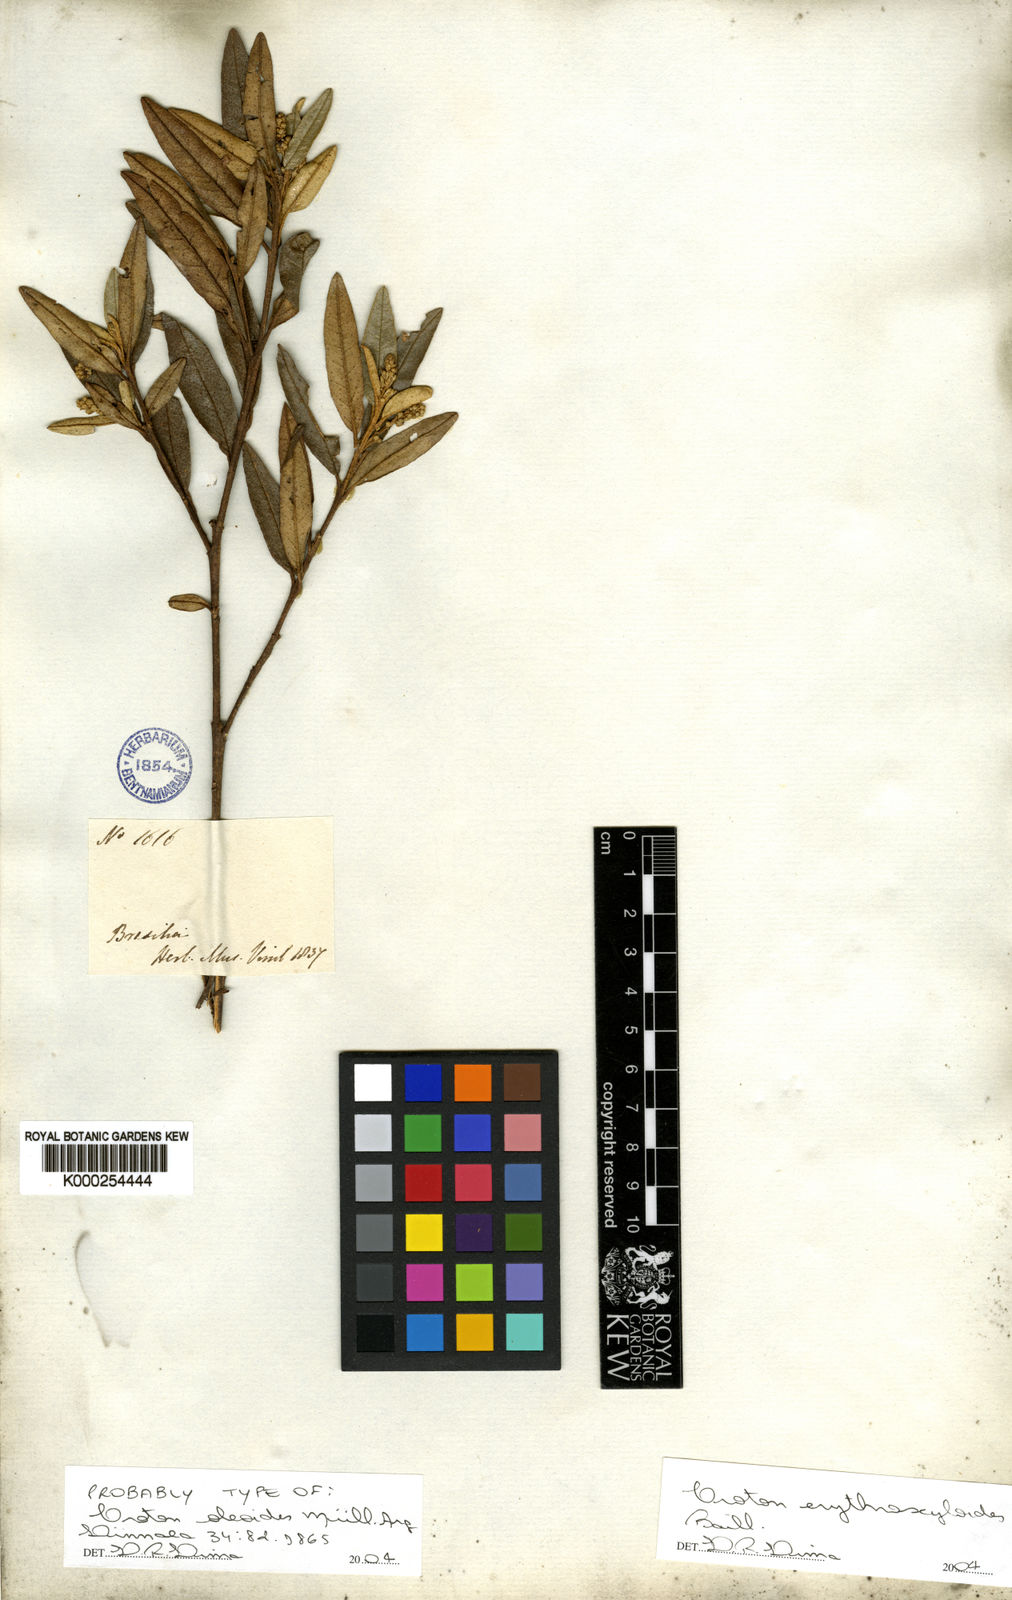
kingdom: Plantae
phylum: Tracheophyta
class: Magnoliopsida
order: Malpighiales
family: Euphorbiaceae
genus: Croton
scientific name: Croton erythroxyloides
